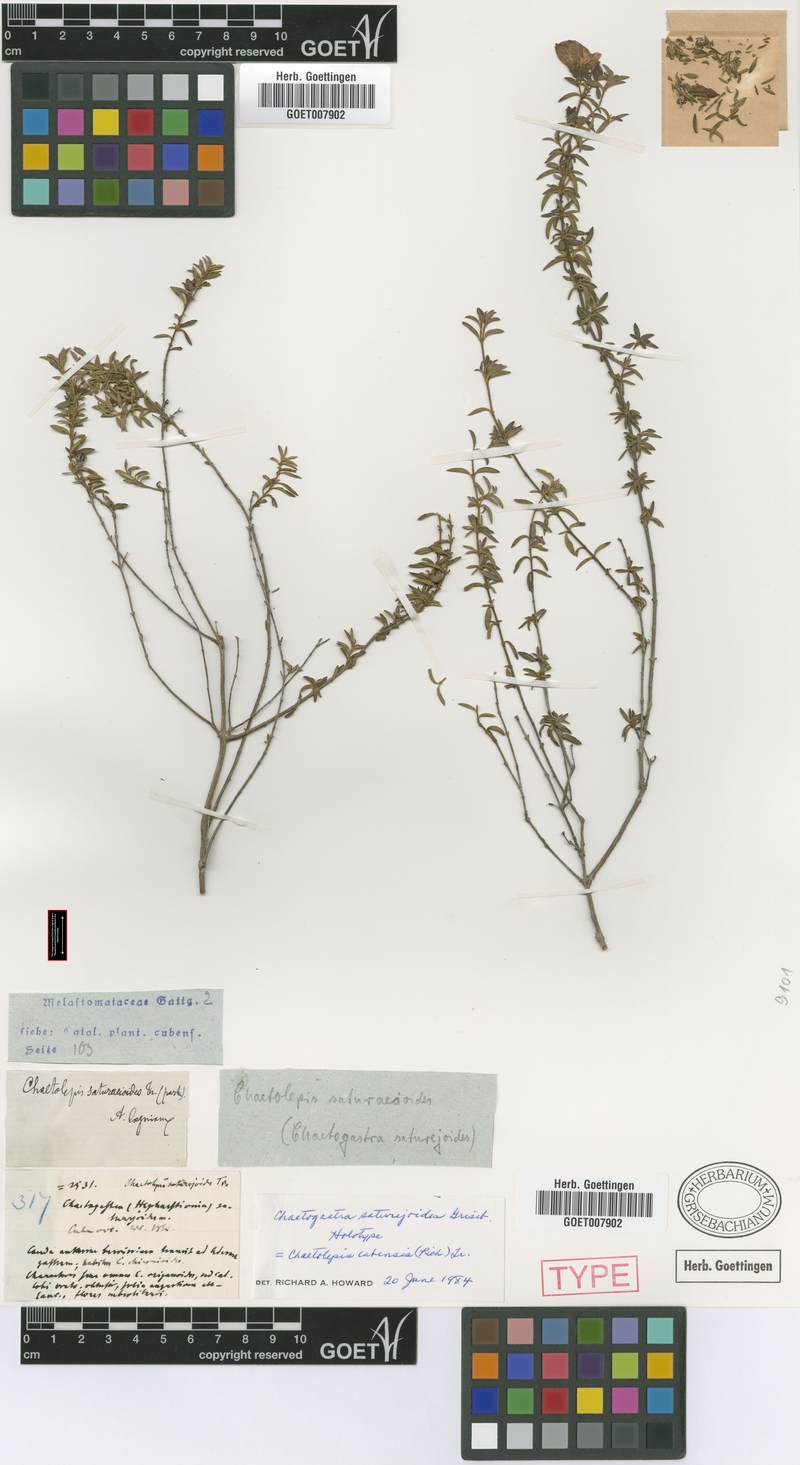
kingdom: Plantae
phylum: Tracheophyta
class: Magnoliopsida
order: Myrtales
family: Melastomataceae
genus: Chaetogastra
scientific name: Chaetogastra cubensis
